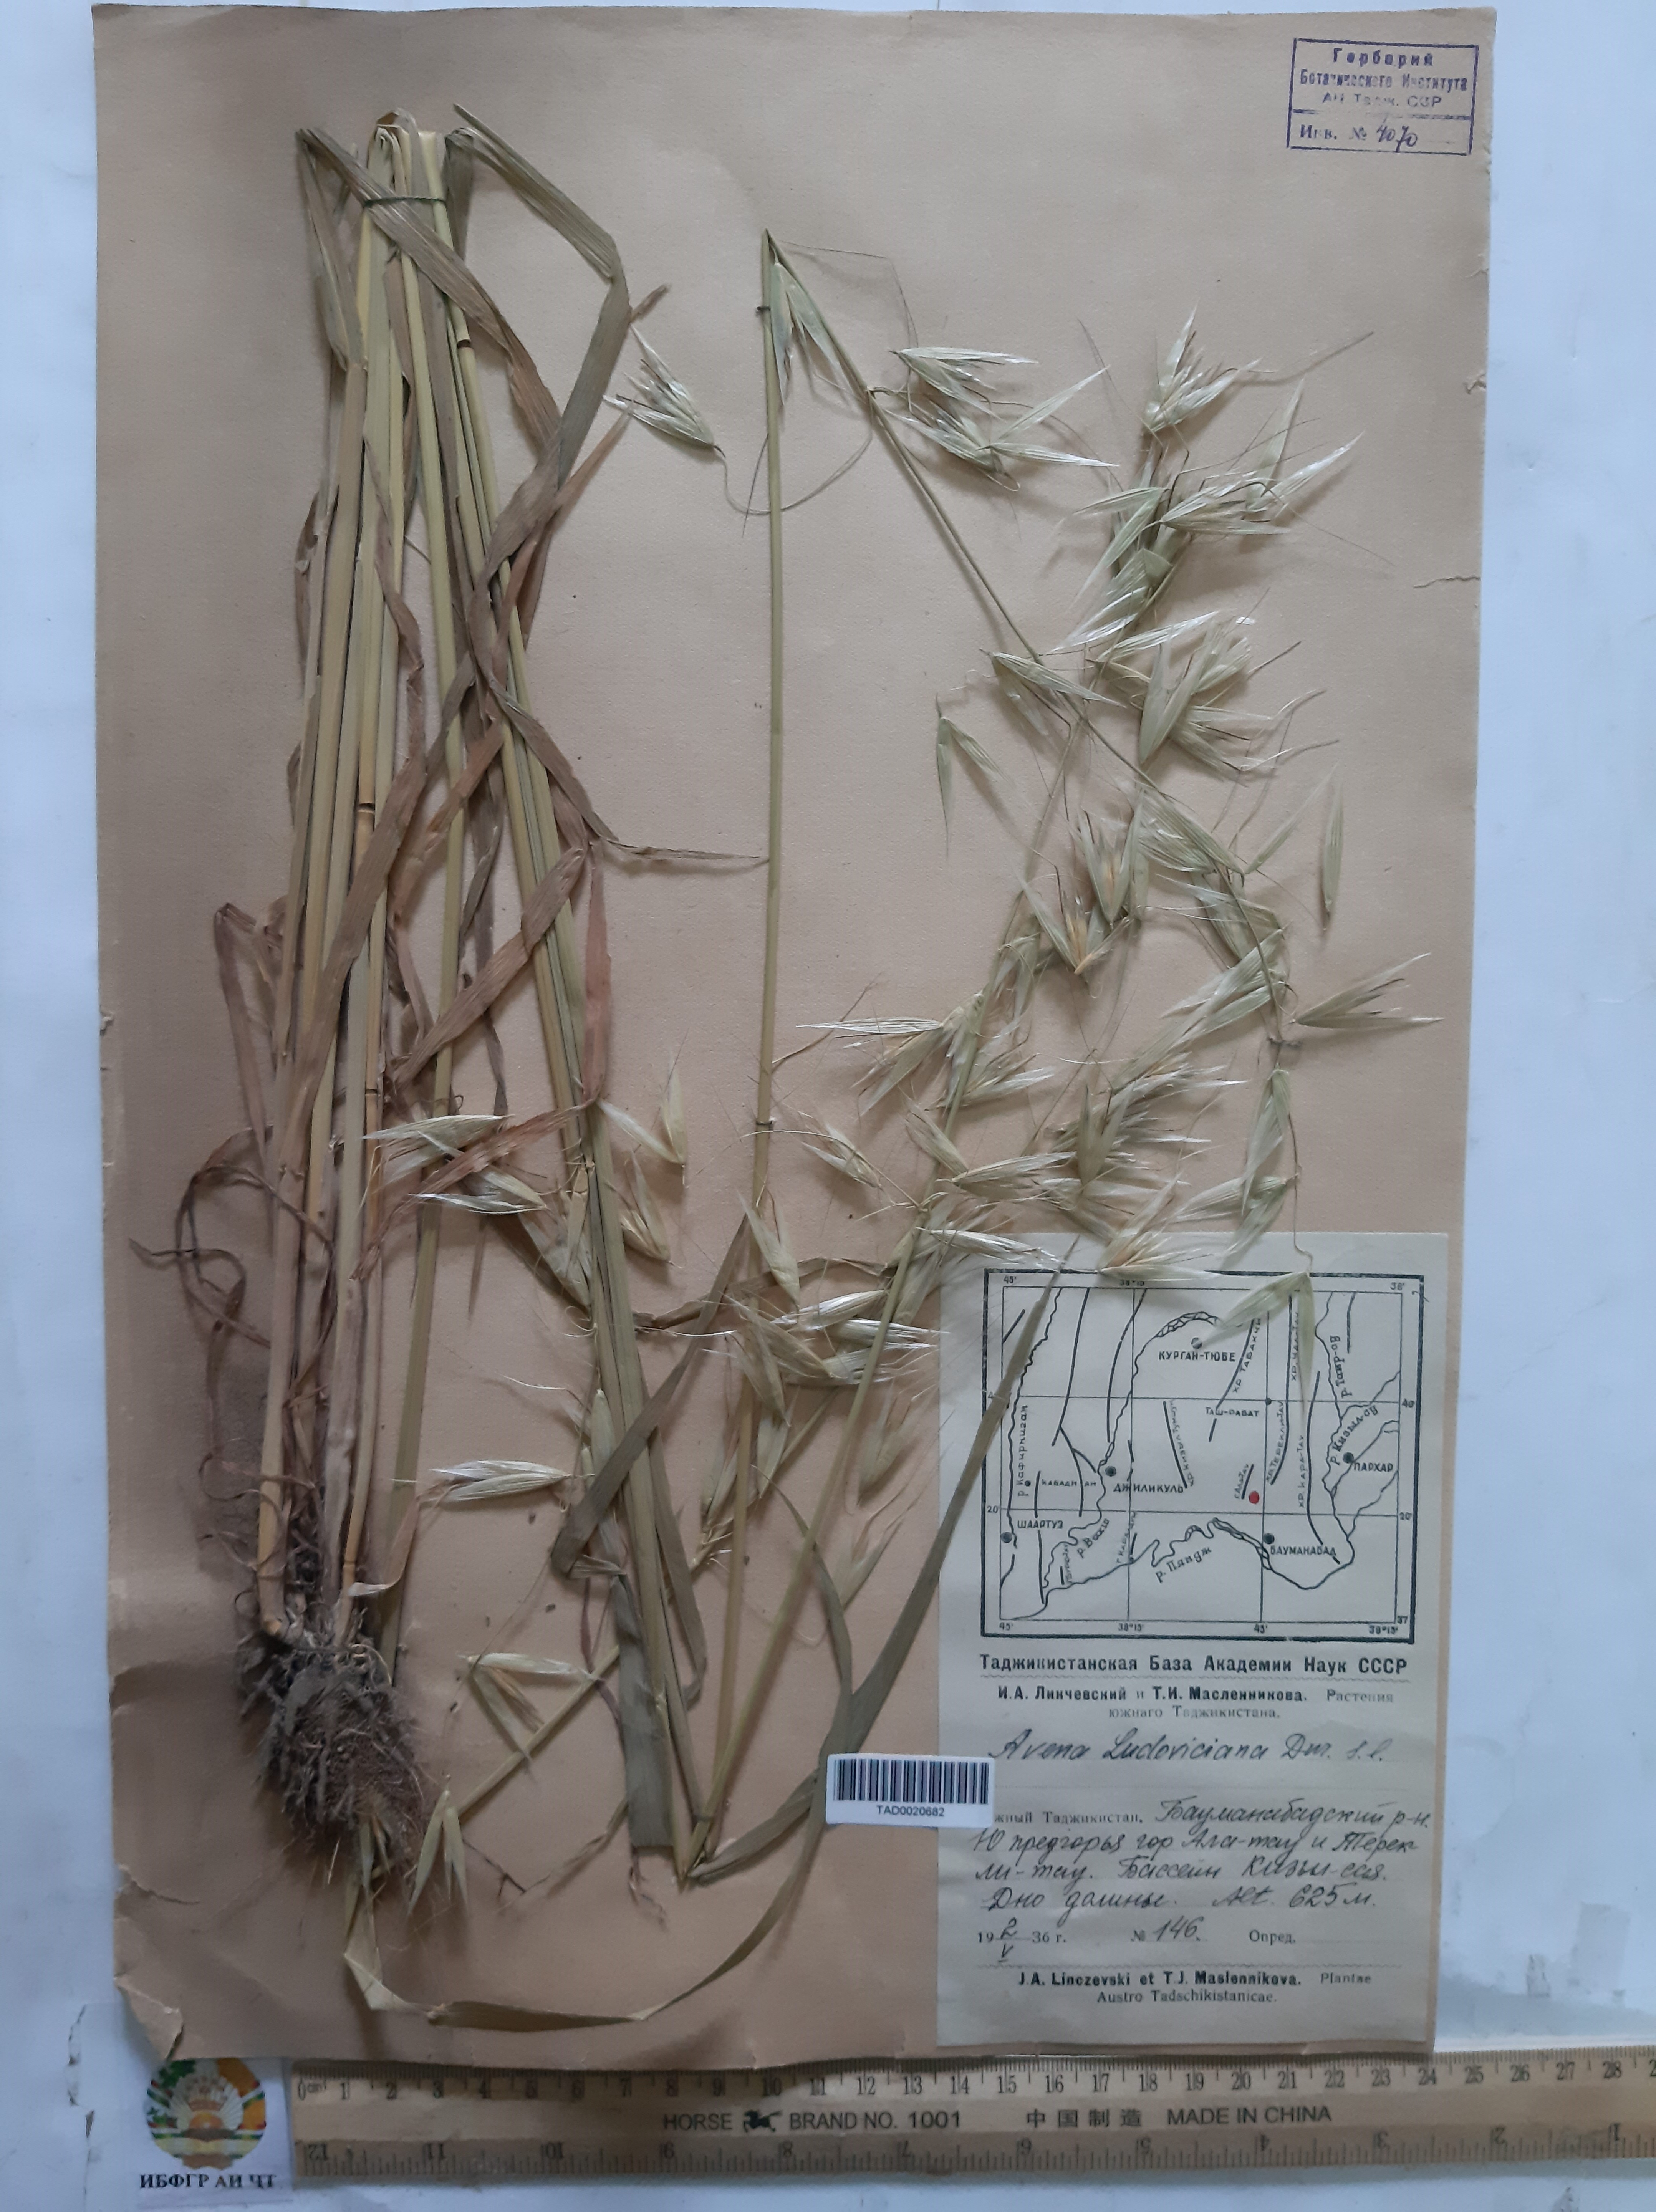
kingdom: Plantae
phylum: Tracheophyta
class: Liliopsida
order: Poales
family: Poaceae
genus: Avena
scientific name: Avena sterilis
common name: Animated oat
